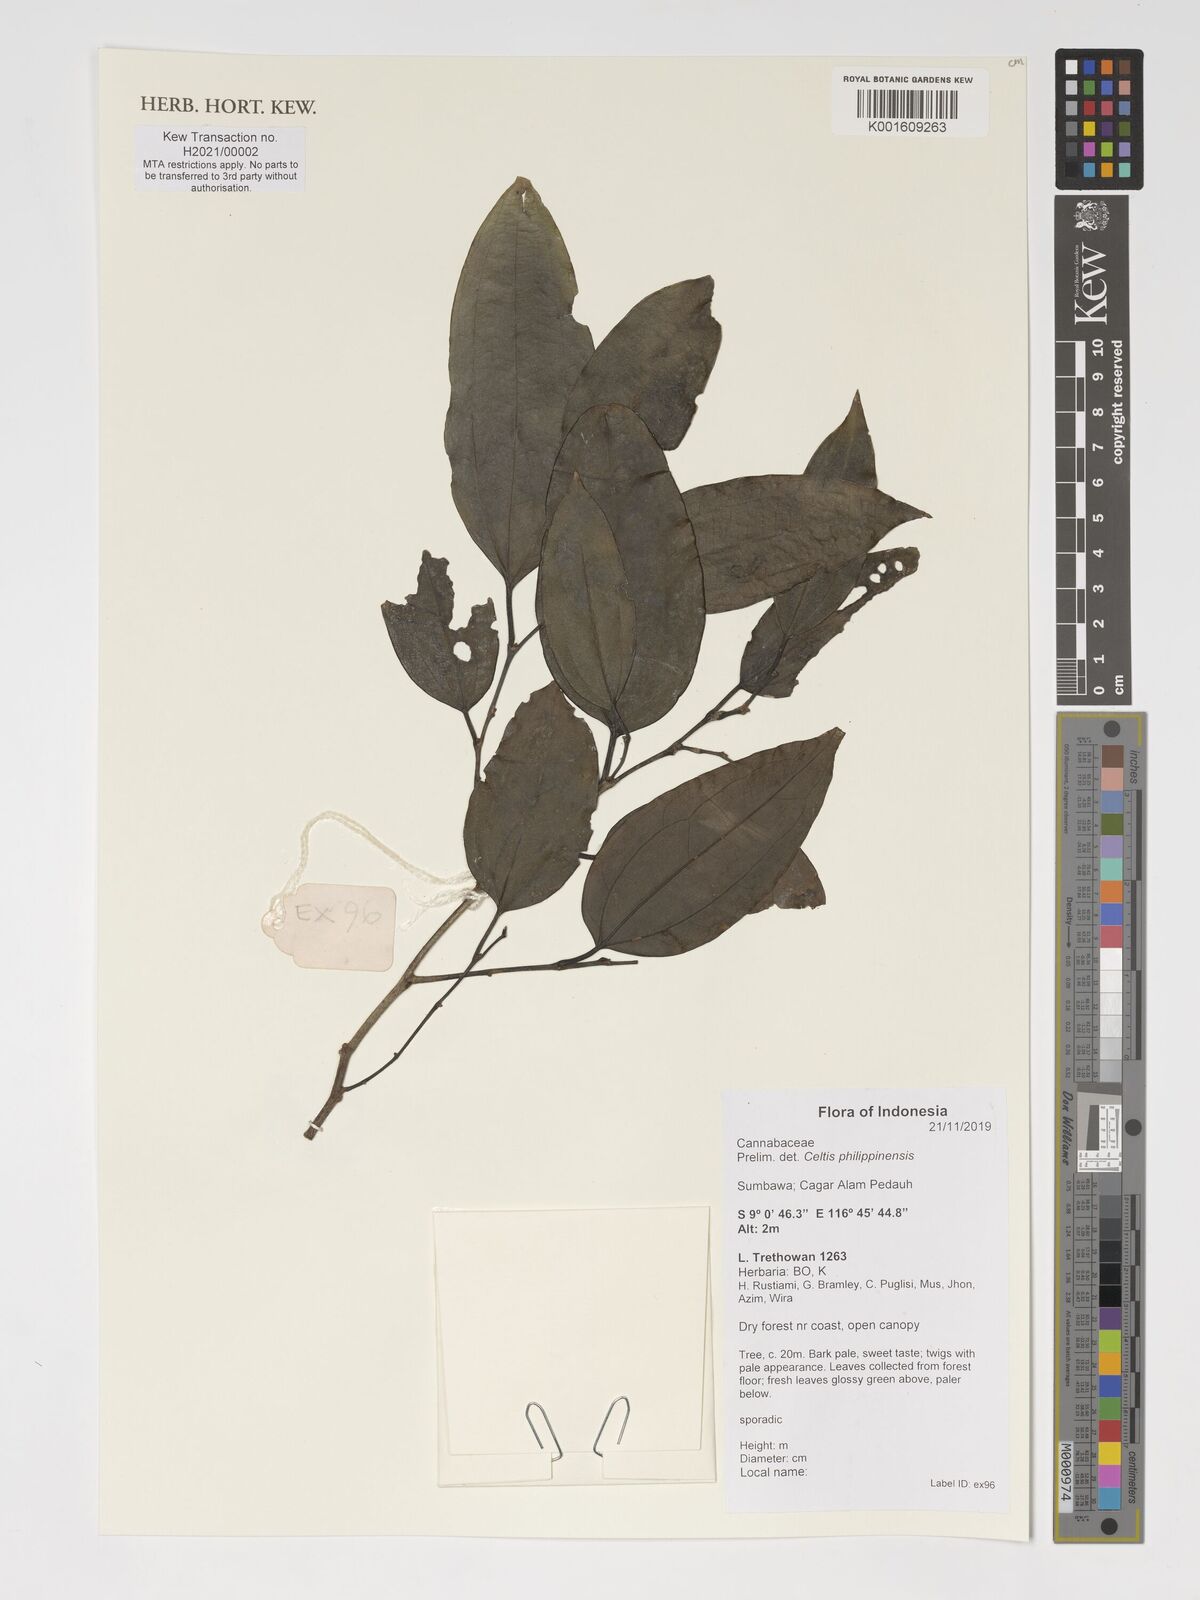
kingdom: Plantae
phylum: Tracheophyta
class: Magnoliopsida
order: Rosales
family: Cannabaceae
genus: Celtis
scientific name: Celtis philippensis
